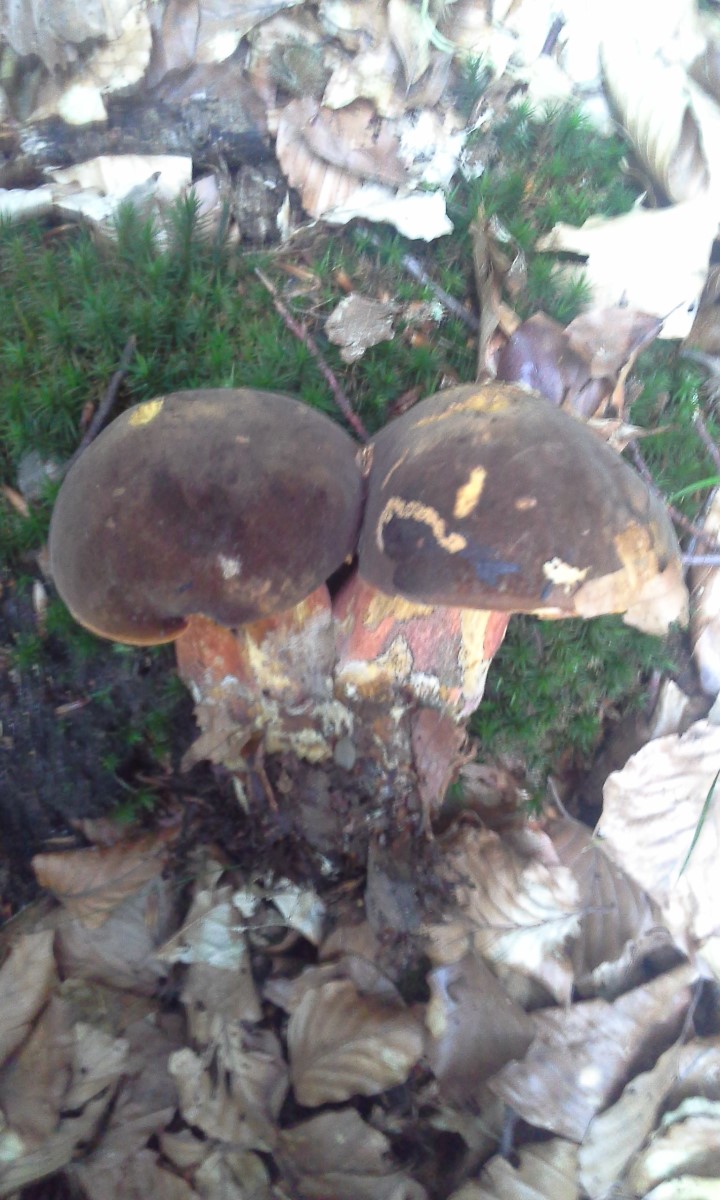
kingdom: Fungi
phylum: Basidiomycota
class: Agaricomycetes
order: Boletales
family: Boletaceae
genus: Neoboletus
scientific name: Neoboletus erythropus
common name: punktstokket indigorørhat
